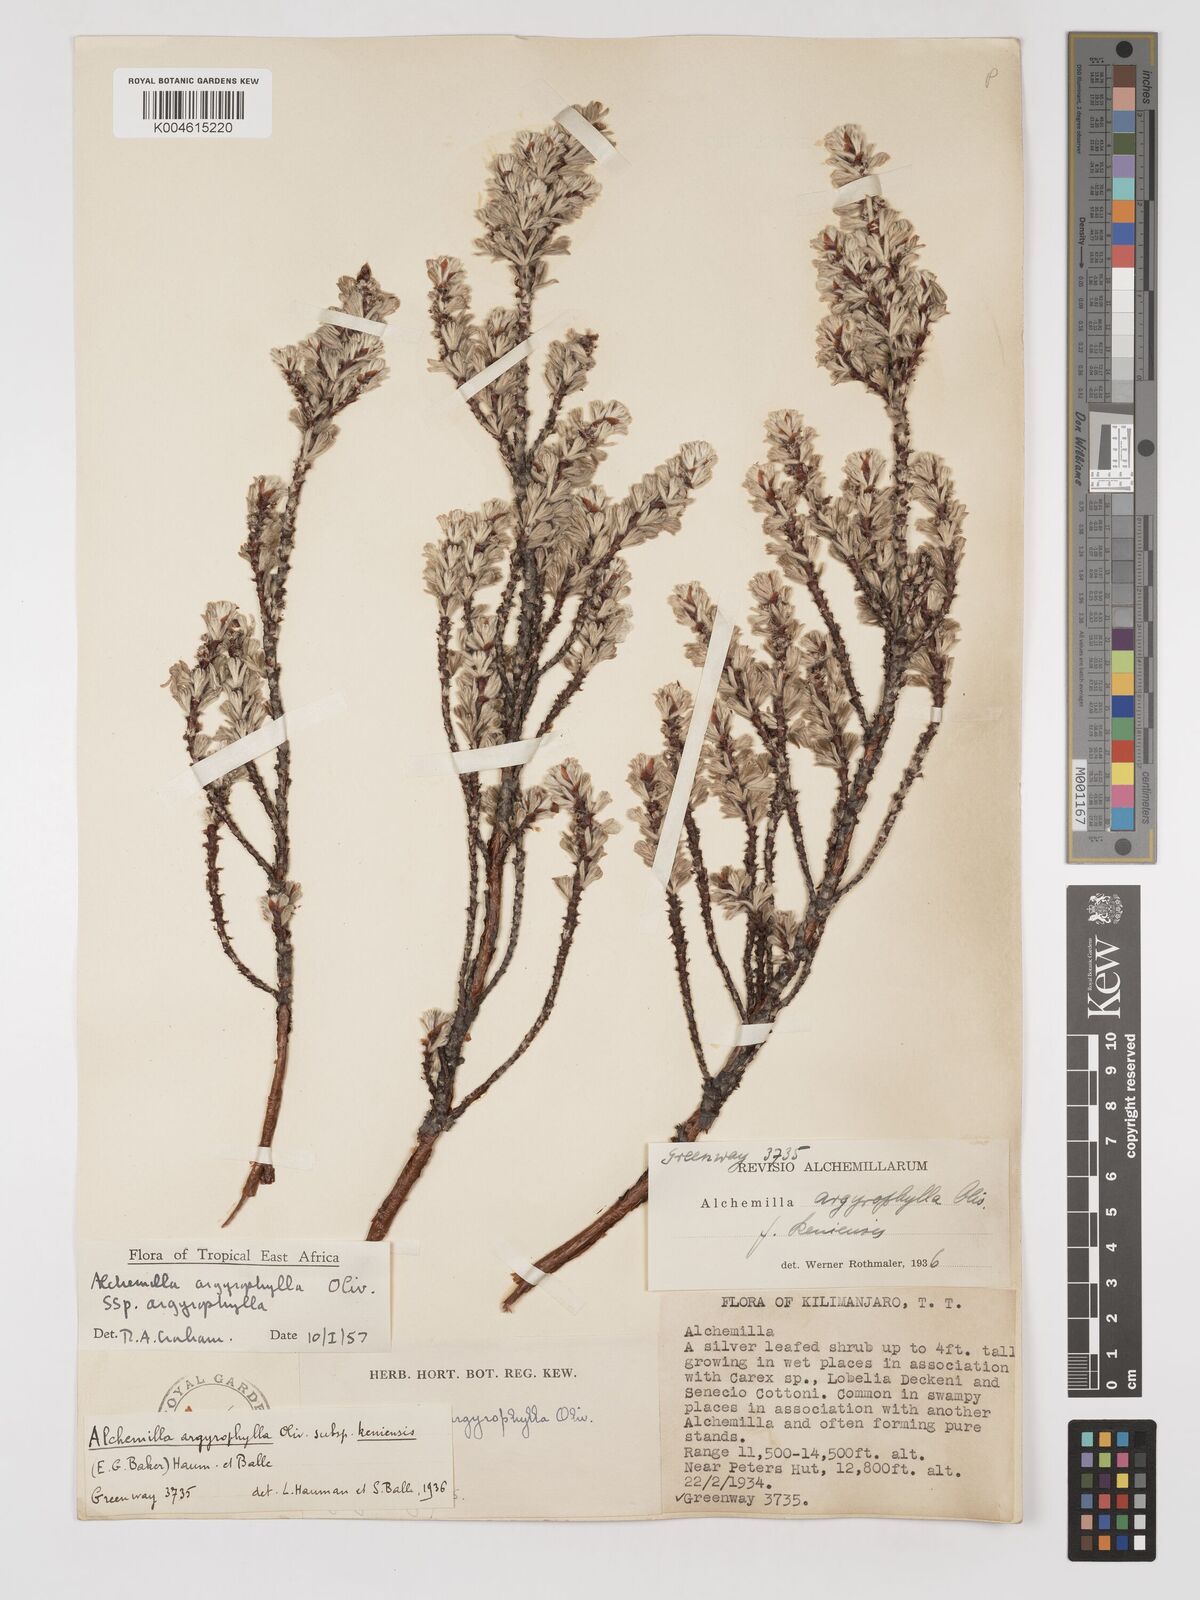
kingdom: Plantae
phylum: Tracheophyta
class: Magnoliopsida
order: Rosales
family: Rosaceae
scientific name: Rosaceae
